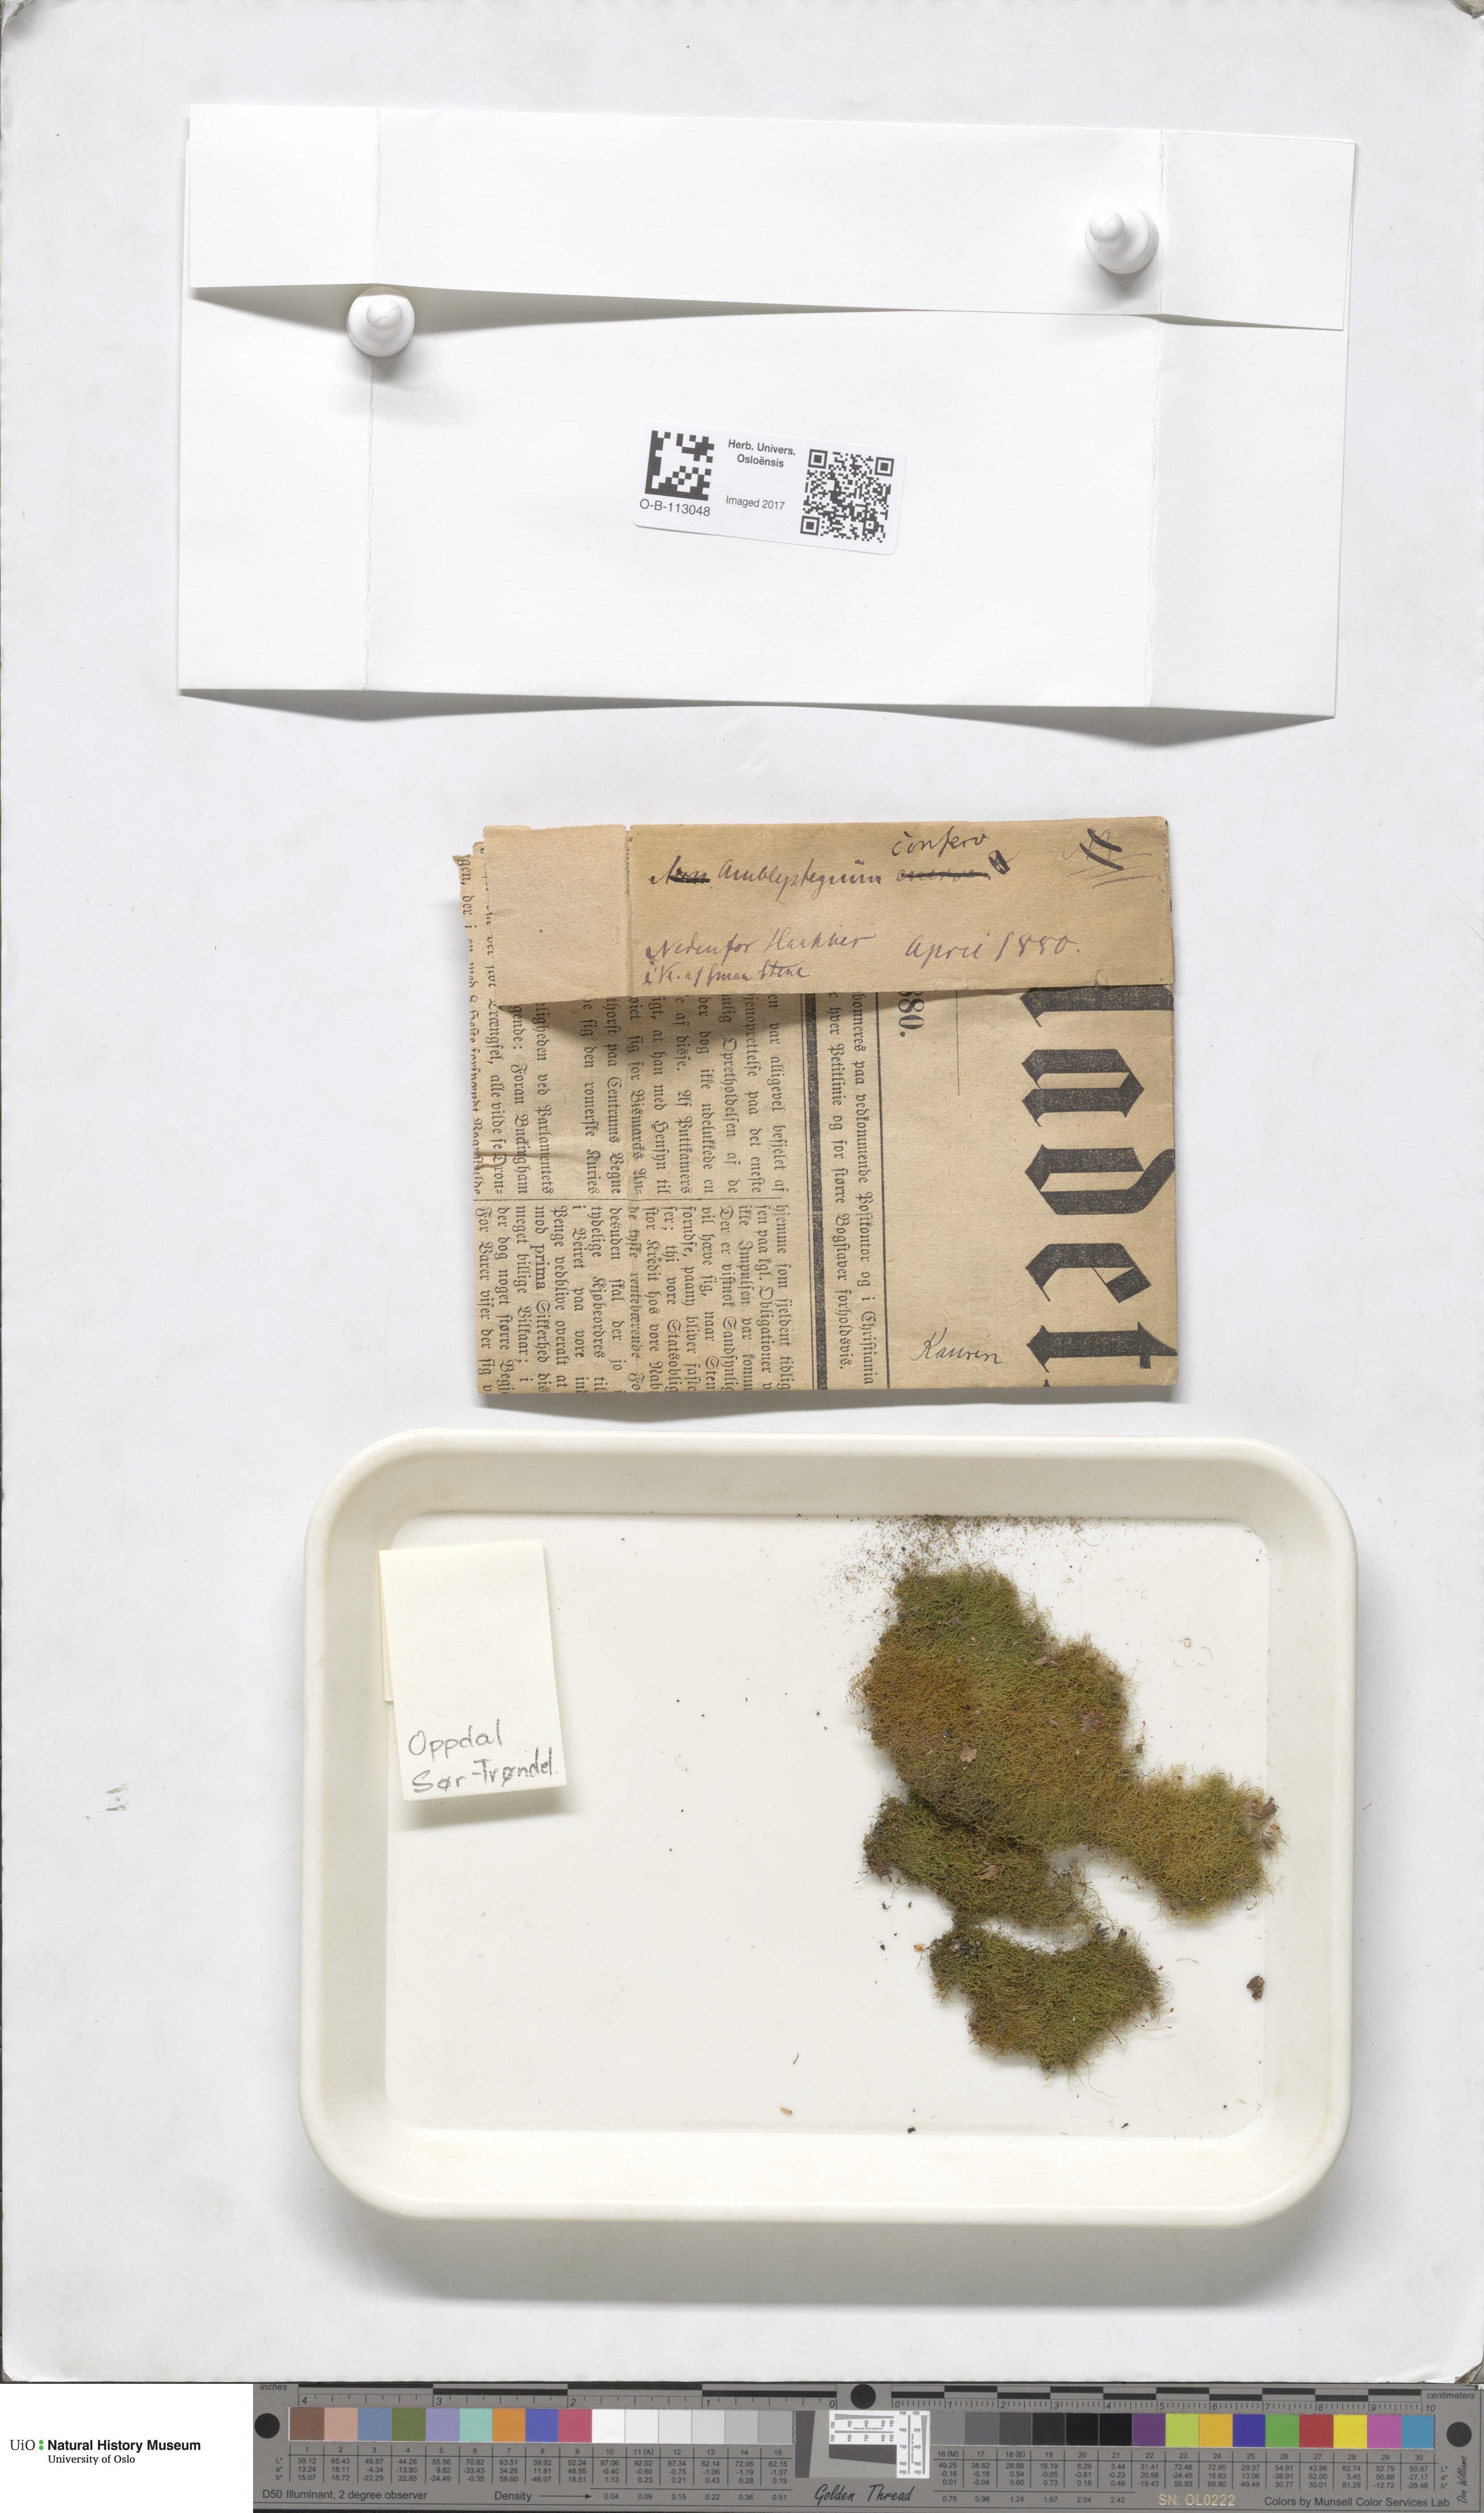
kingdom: Plantae
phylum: Bryophyta
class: Bryopsida
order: Hypnales
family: Amblystegiaceae
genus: Serpoleskea
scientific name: Serpoleskea confervoides
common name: Alga-like matted-moss
